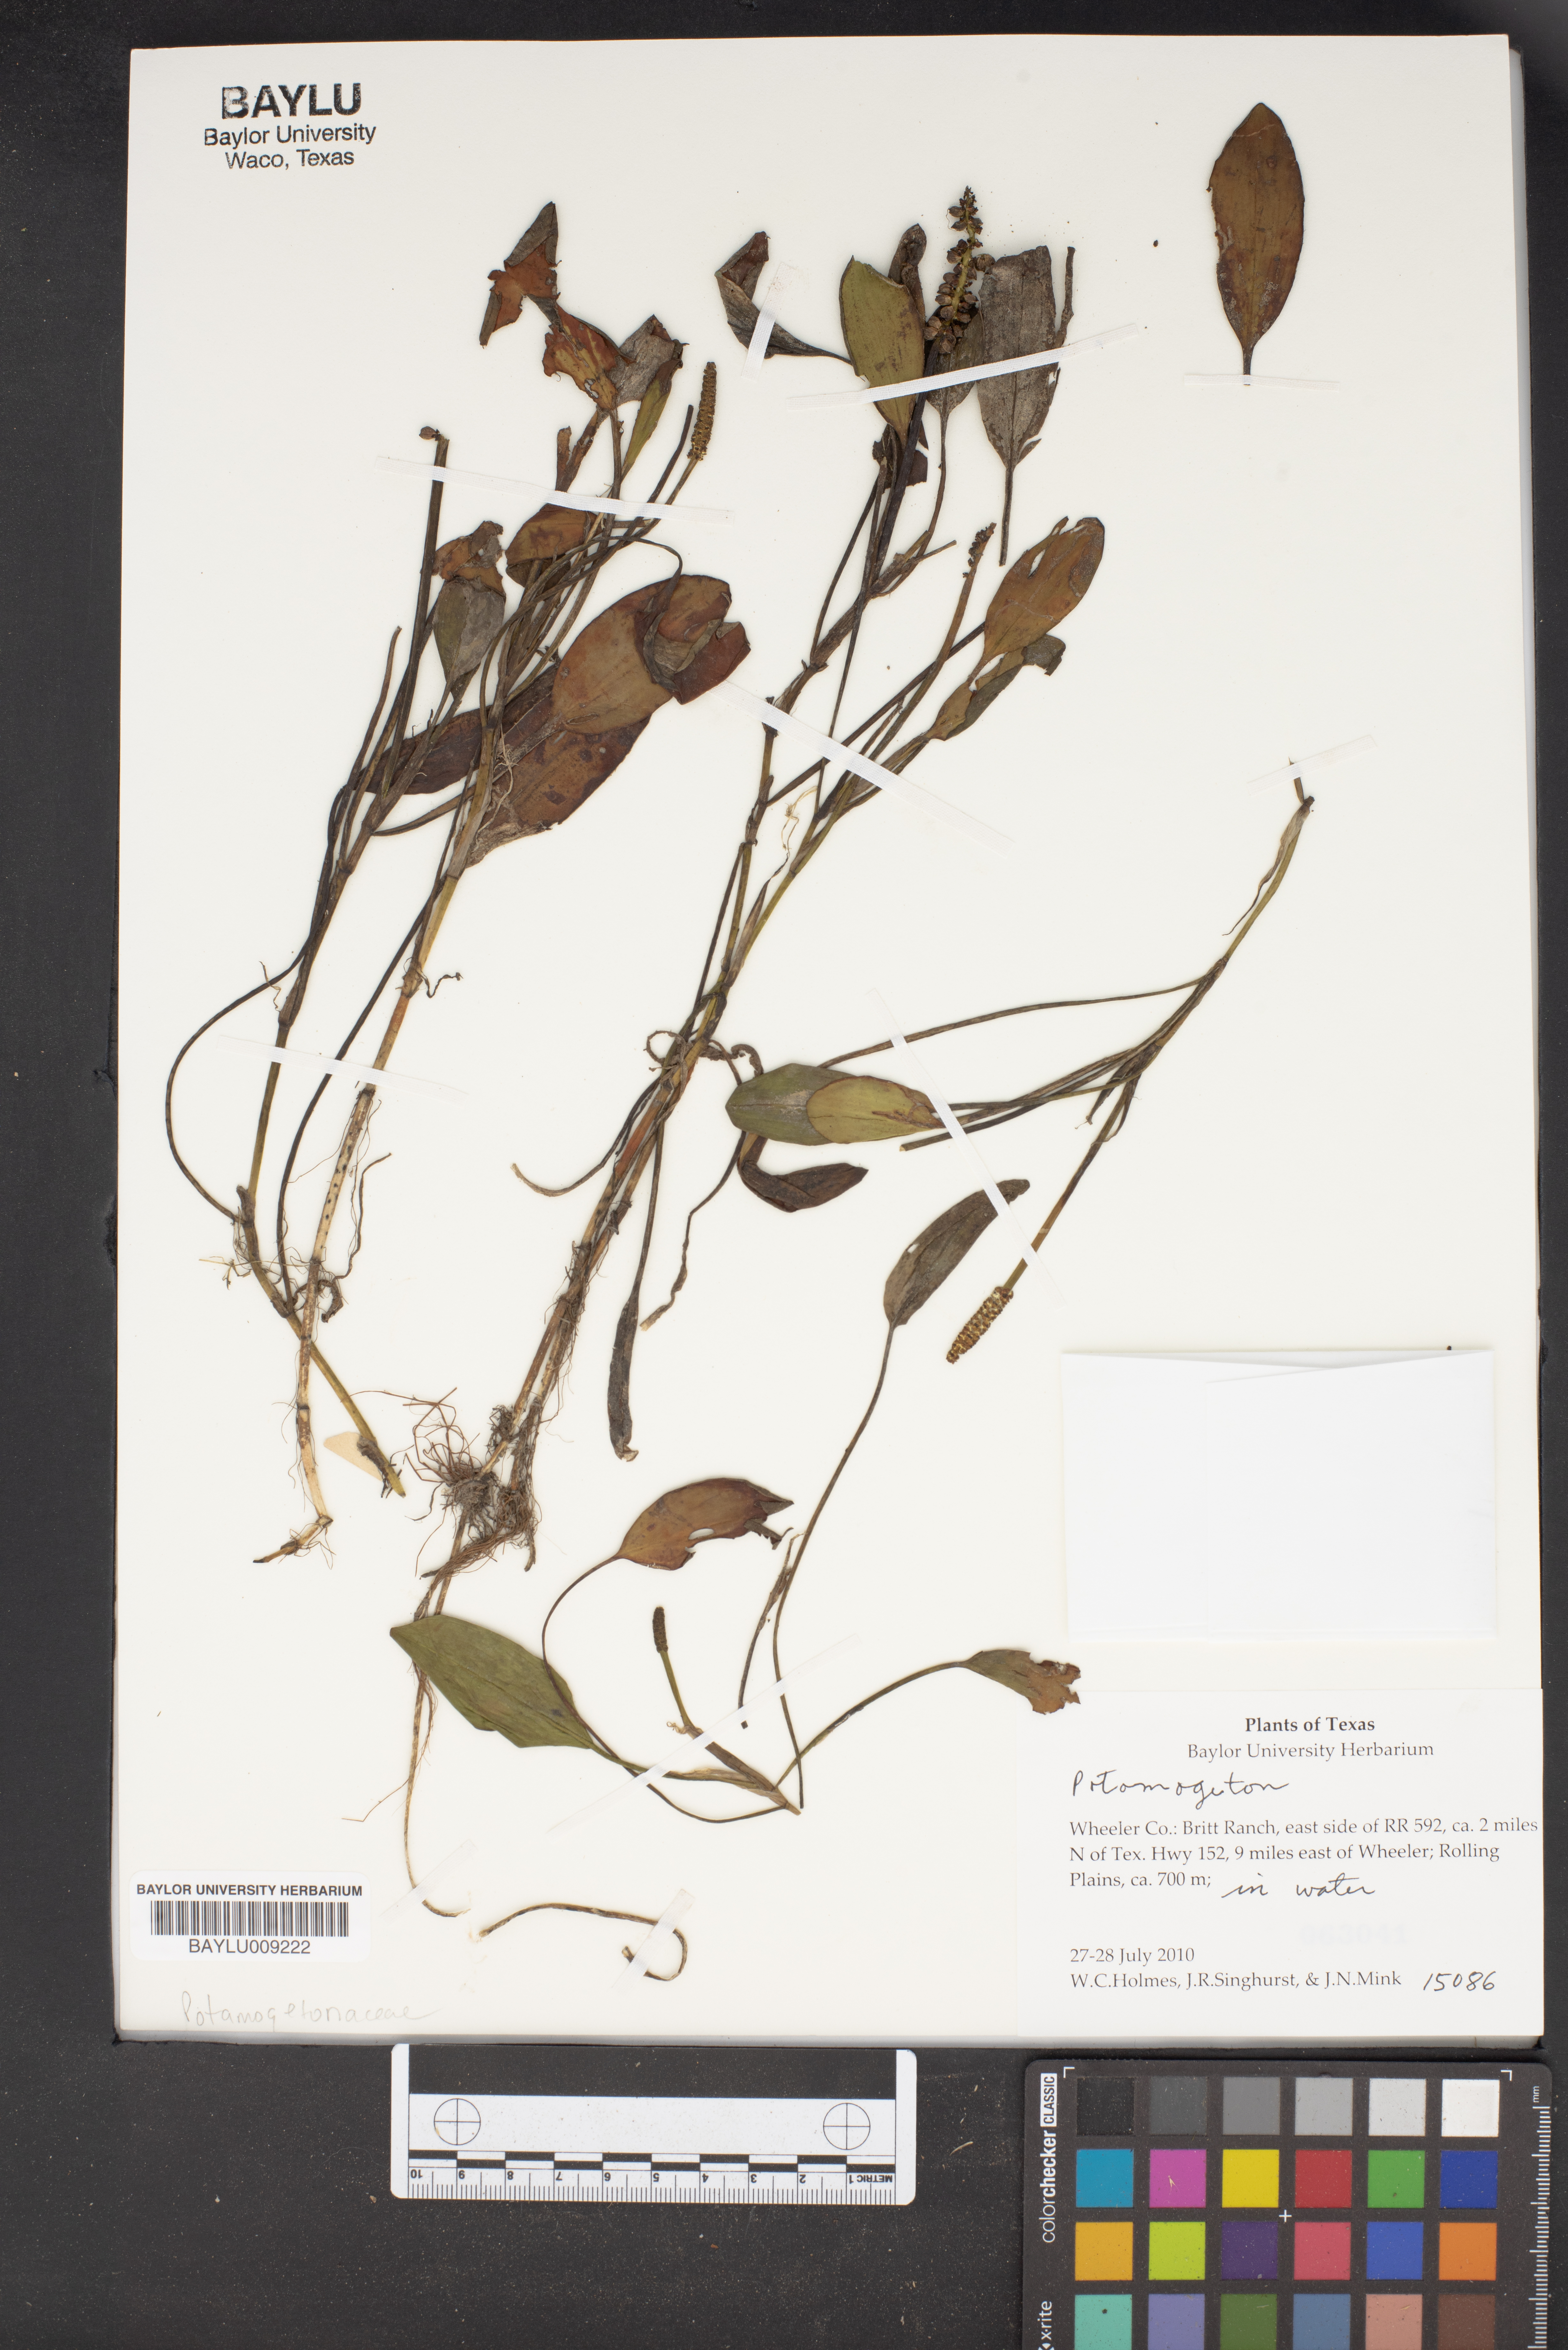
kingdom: Plantae
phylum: Tracheophyta
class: Liliopsida
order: Alismatales
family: Potamogetonaceae
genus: Potamogeton
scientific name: Potamogeton
